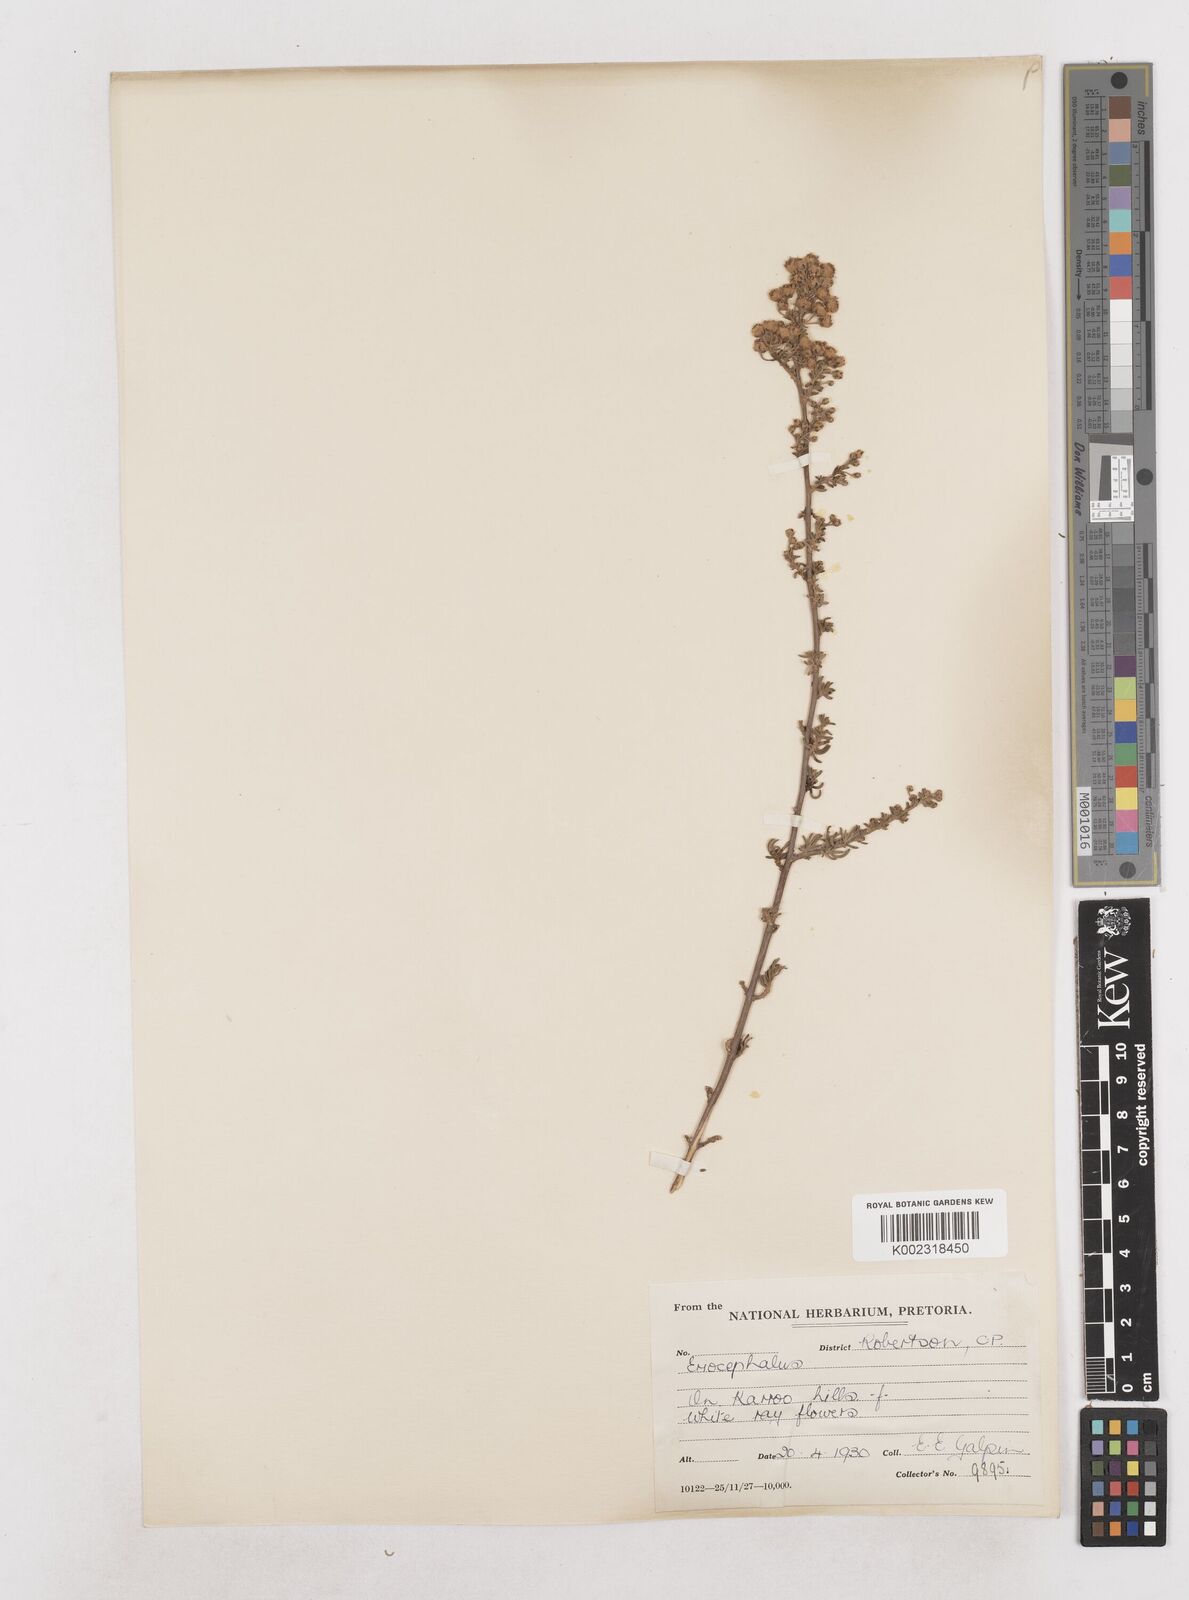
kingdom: Plantae
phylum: Tracheophyta
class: Magnoliopsida
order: Asterales
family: Asteraceae
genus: Eriocephalus
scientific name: Eriocephalus
